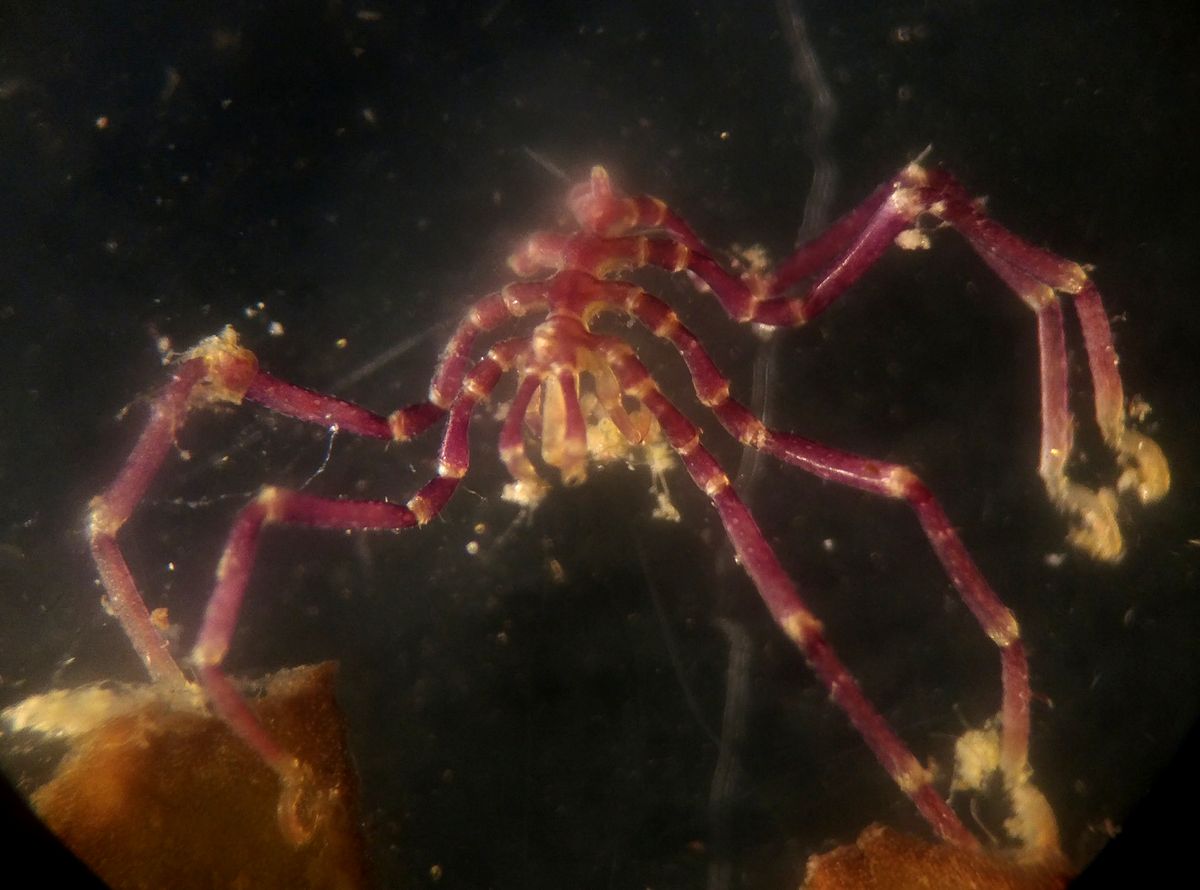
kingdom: Animalia
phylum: Arthropoda
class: Pycnogonida
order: Pantopoda
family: Phoxichilidiidae
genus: Phoxichilidium
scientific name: Phoxichilidium femoratum
